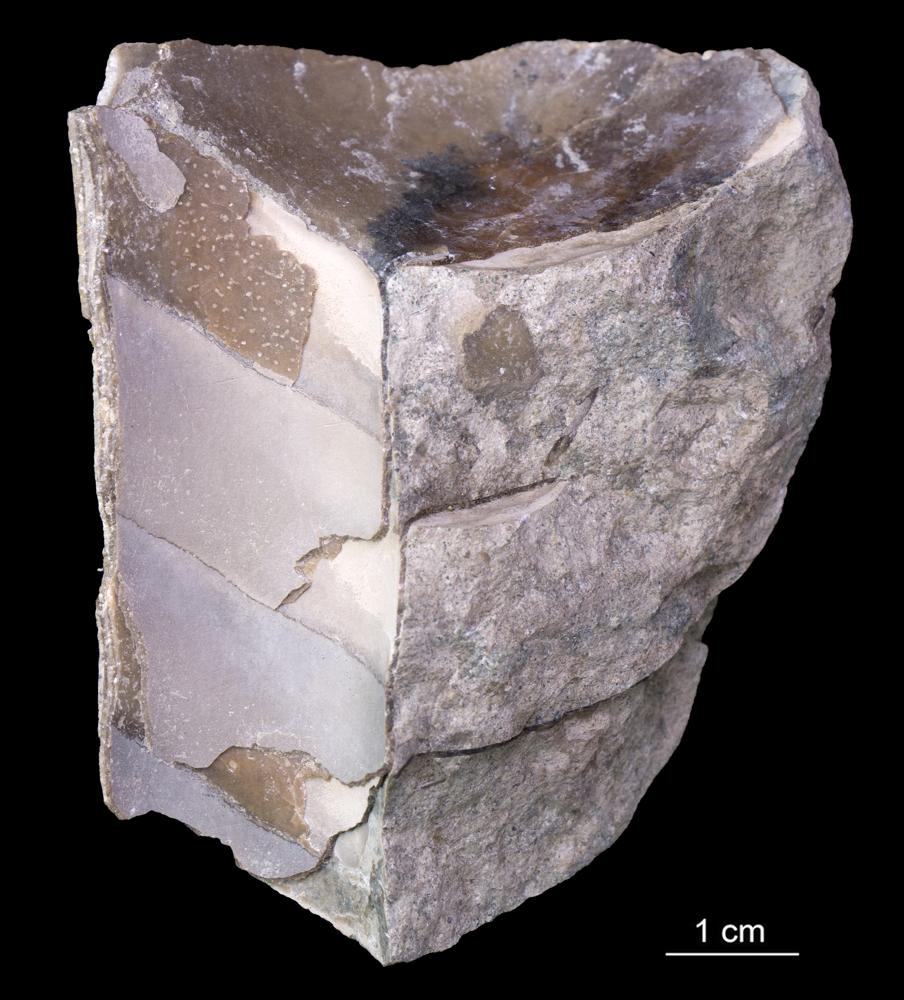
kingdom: Animalia
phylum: Mollusca
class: Cephalopoda
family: Estonioceratidae
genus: Estonioceras
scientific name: Estonioceras
